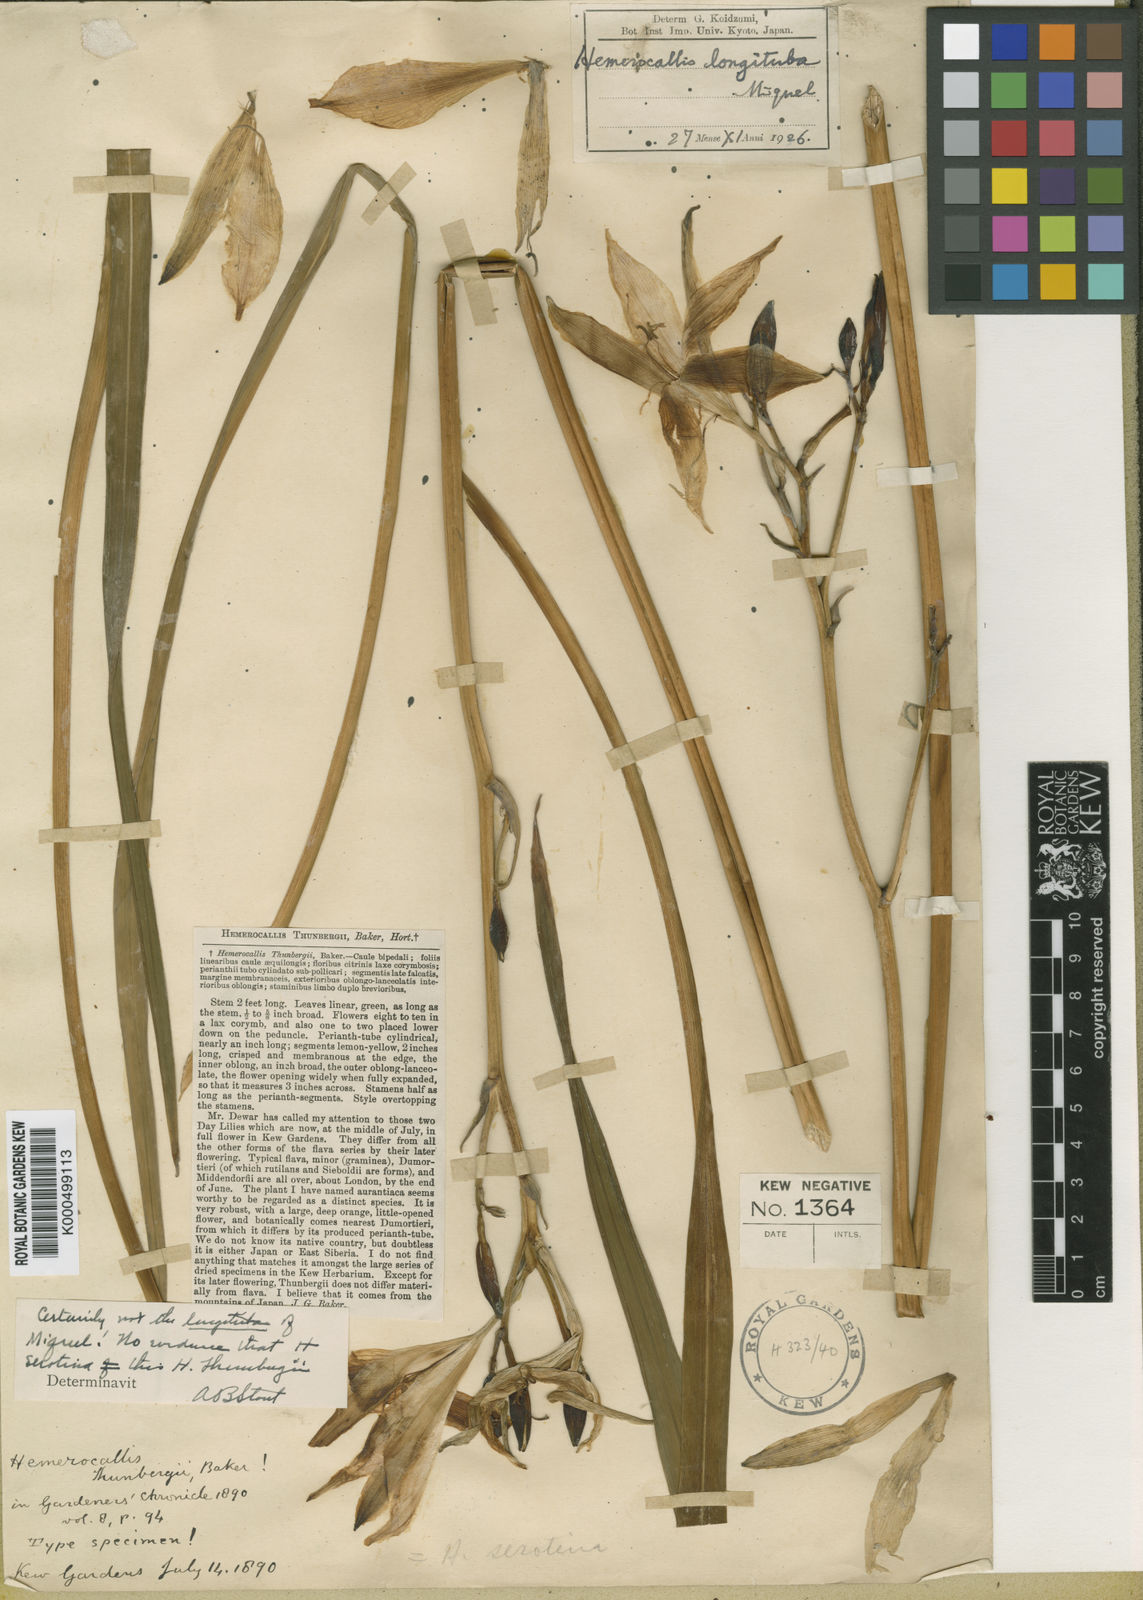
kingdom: Plantae
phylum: Tracheophyta
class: Liliopsida
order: Asparagales
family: Asphodelaceae
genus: Hemerocallis
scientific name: Hemerocallis
